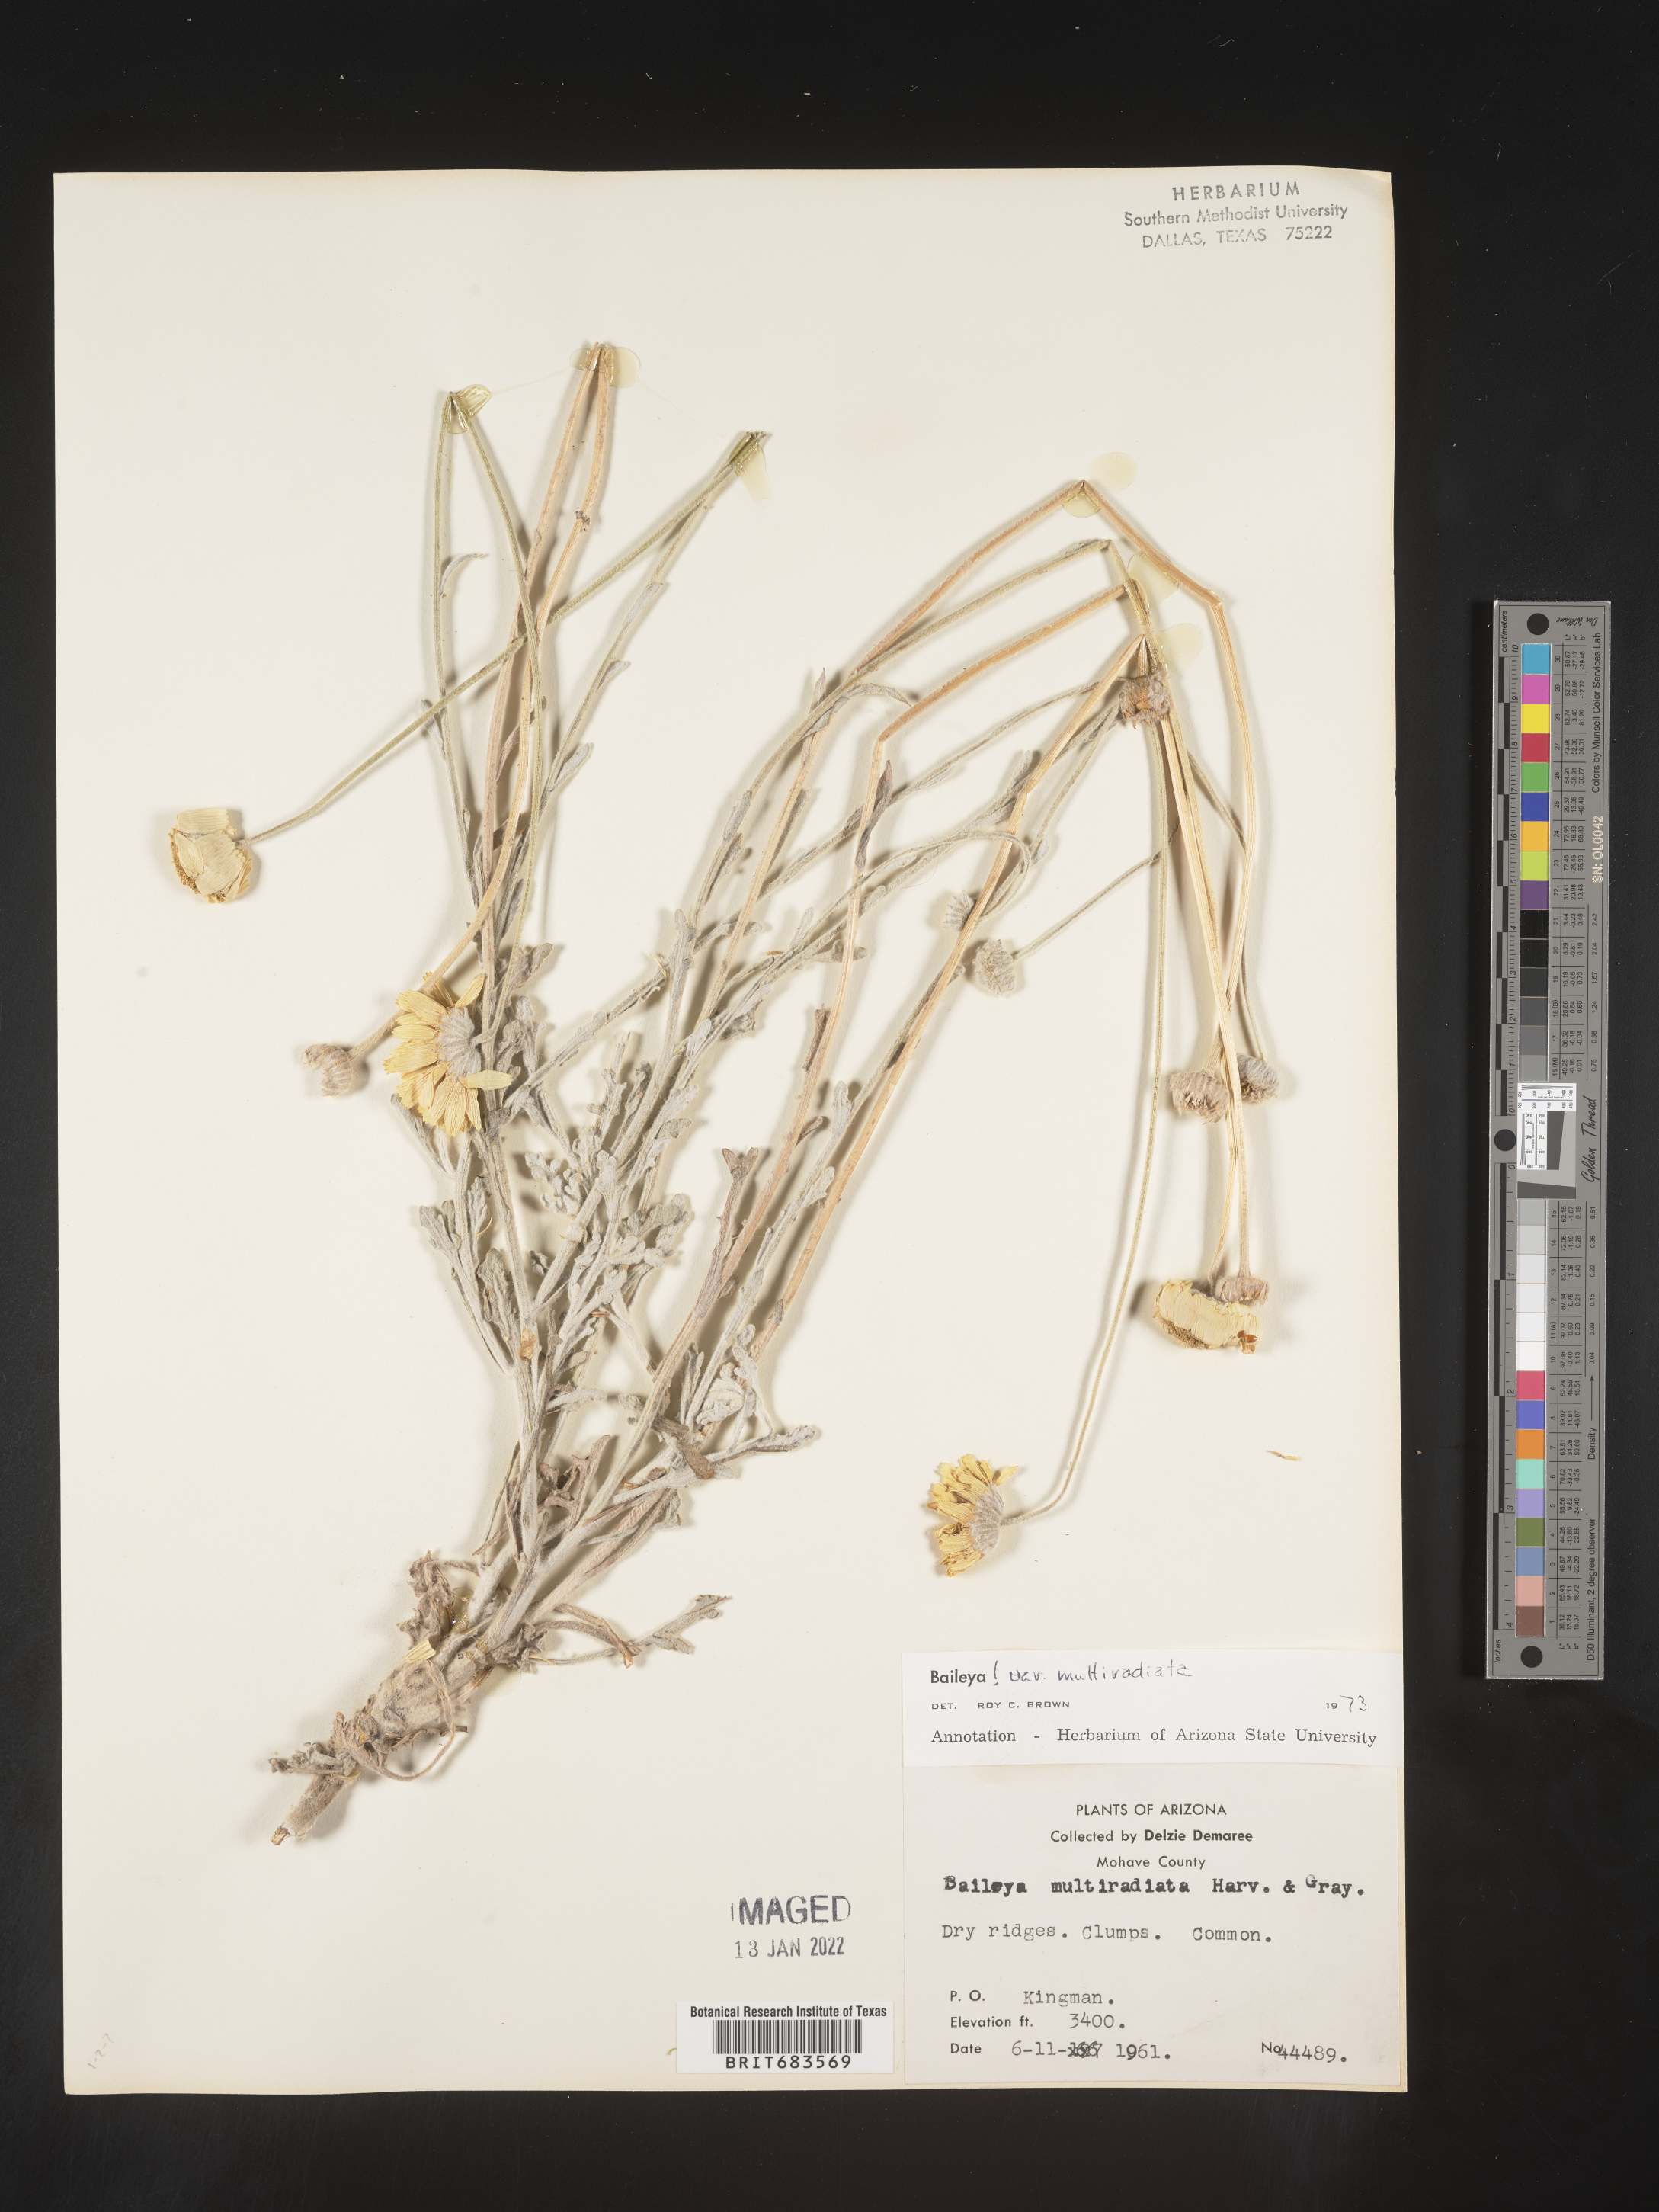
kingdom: Plantae
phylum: Tracheophyta
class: Magnoliopsida
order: Asterales
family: Asteraceae
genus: Baileya
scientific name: Baileya multiradiata
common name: Desert-marigold
